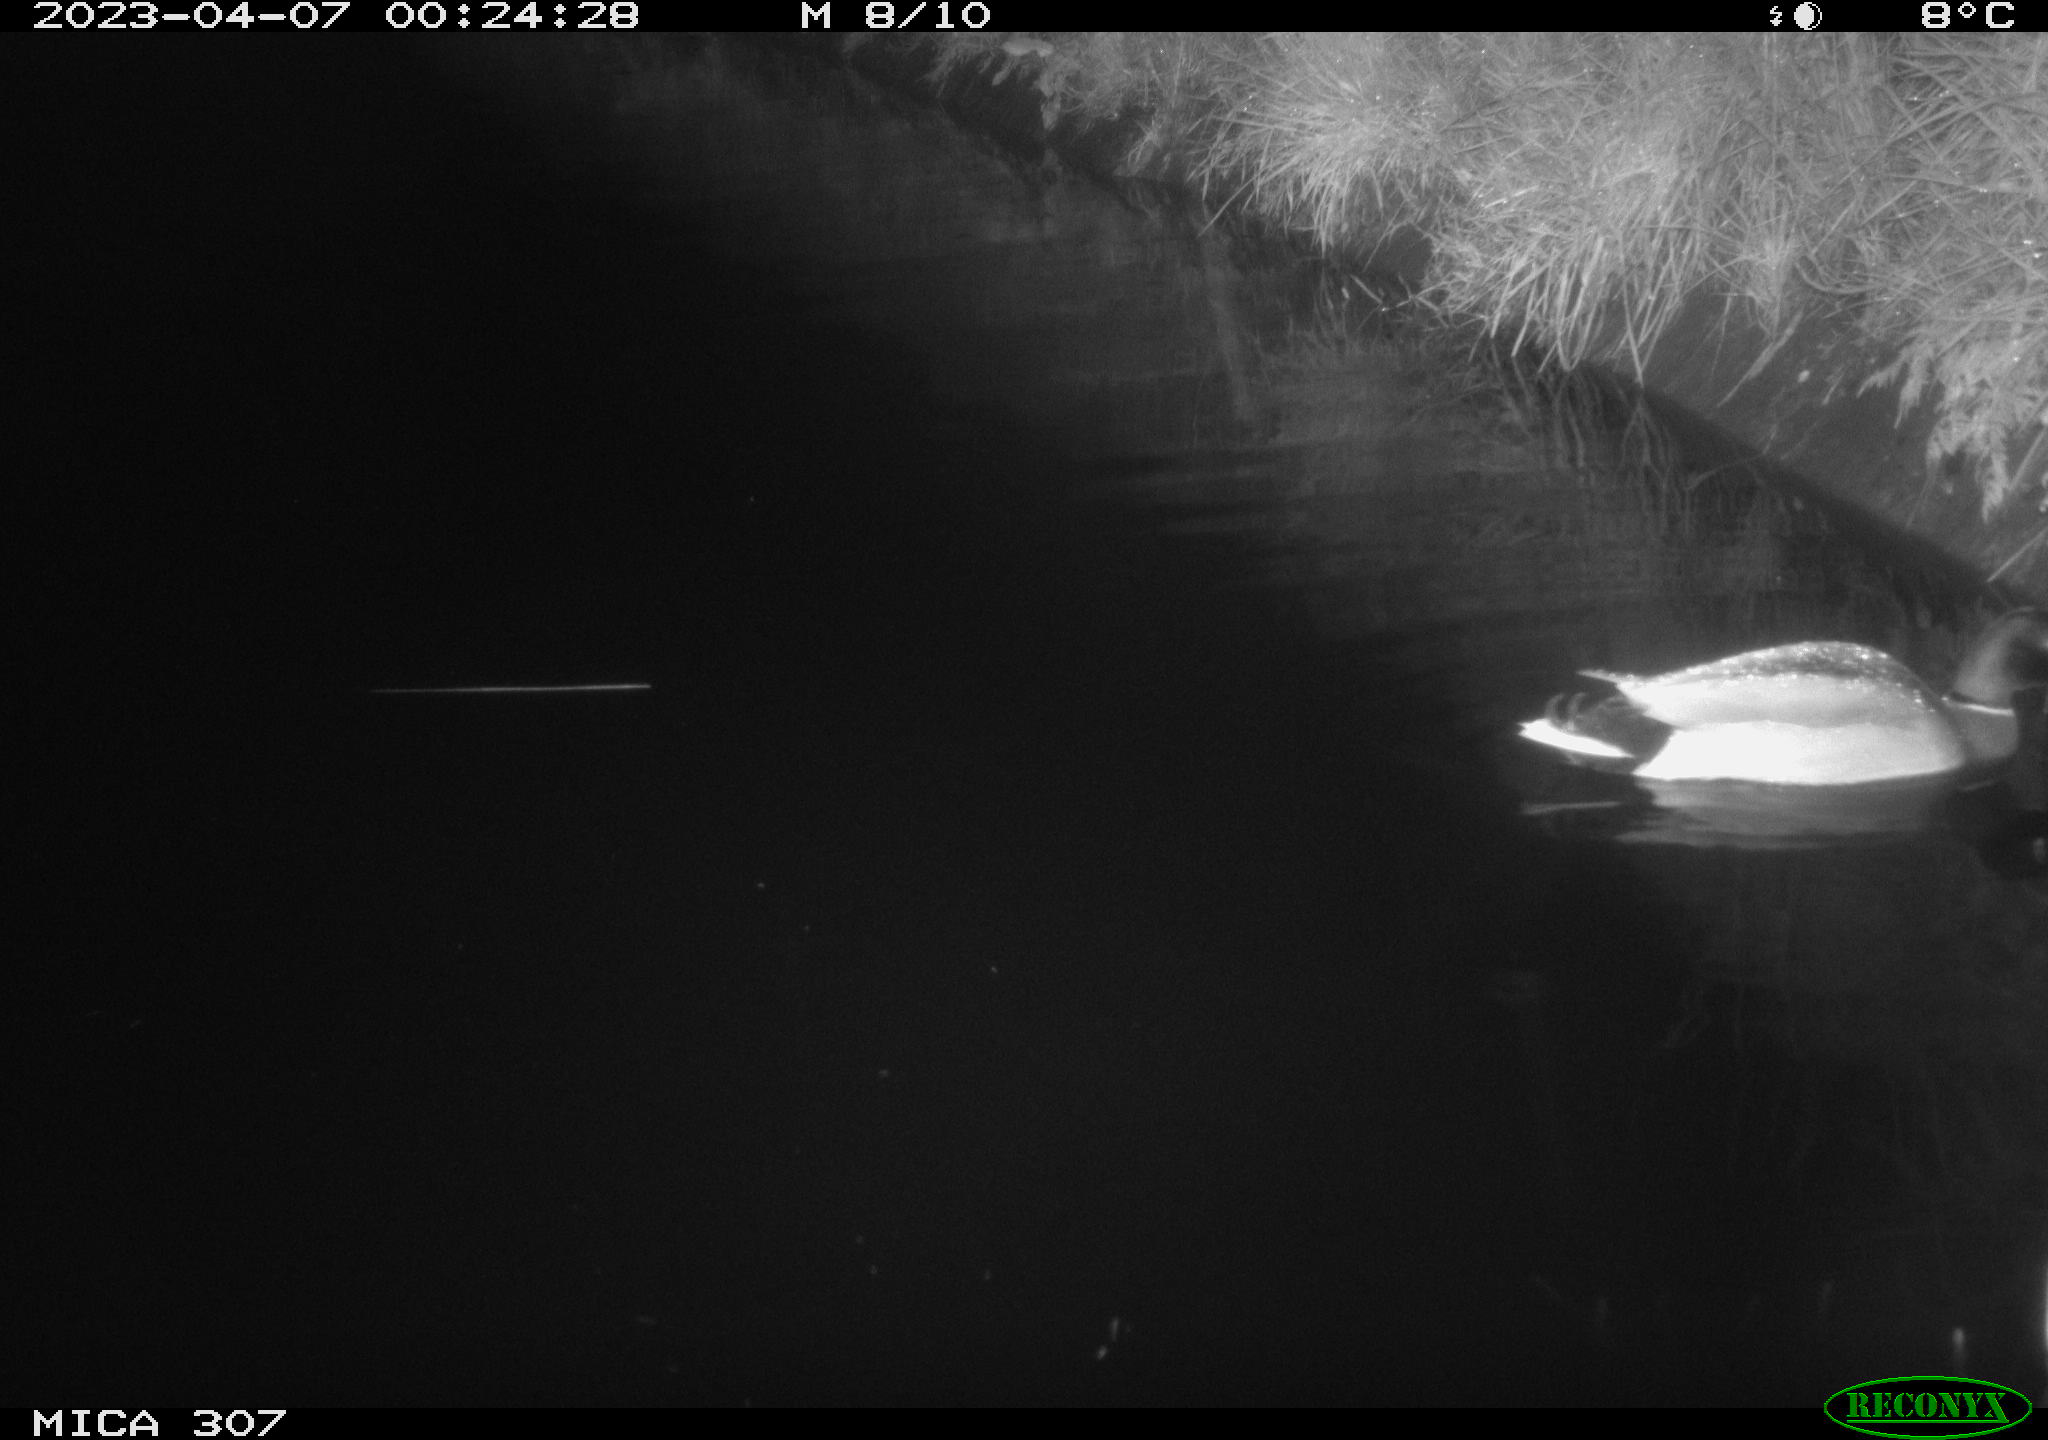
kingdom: Animalia
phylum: Chordata
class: Aves
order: Anseriformes
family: Anatidae
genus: Anas
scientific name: Anas
